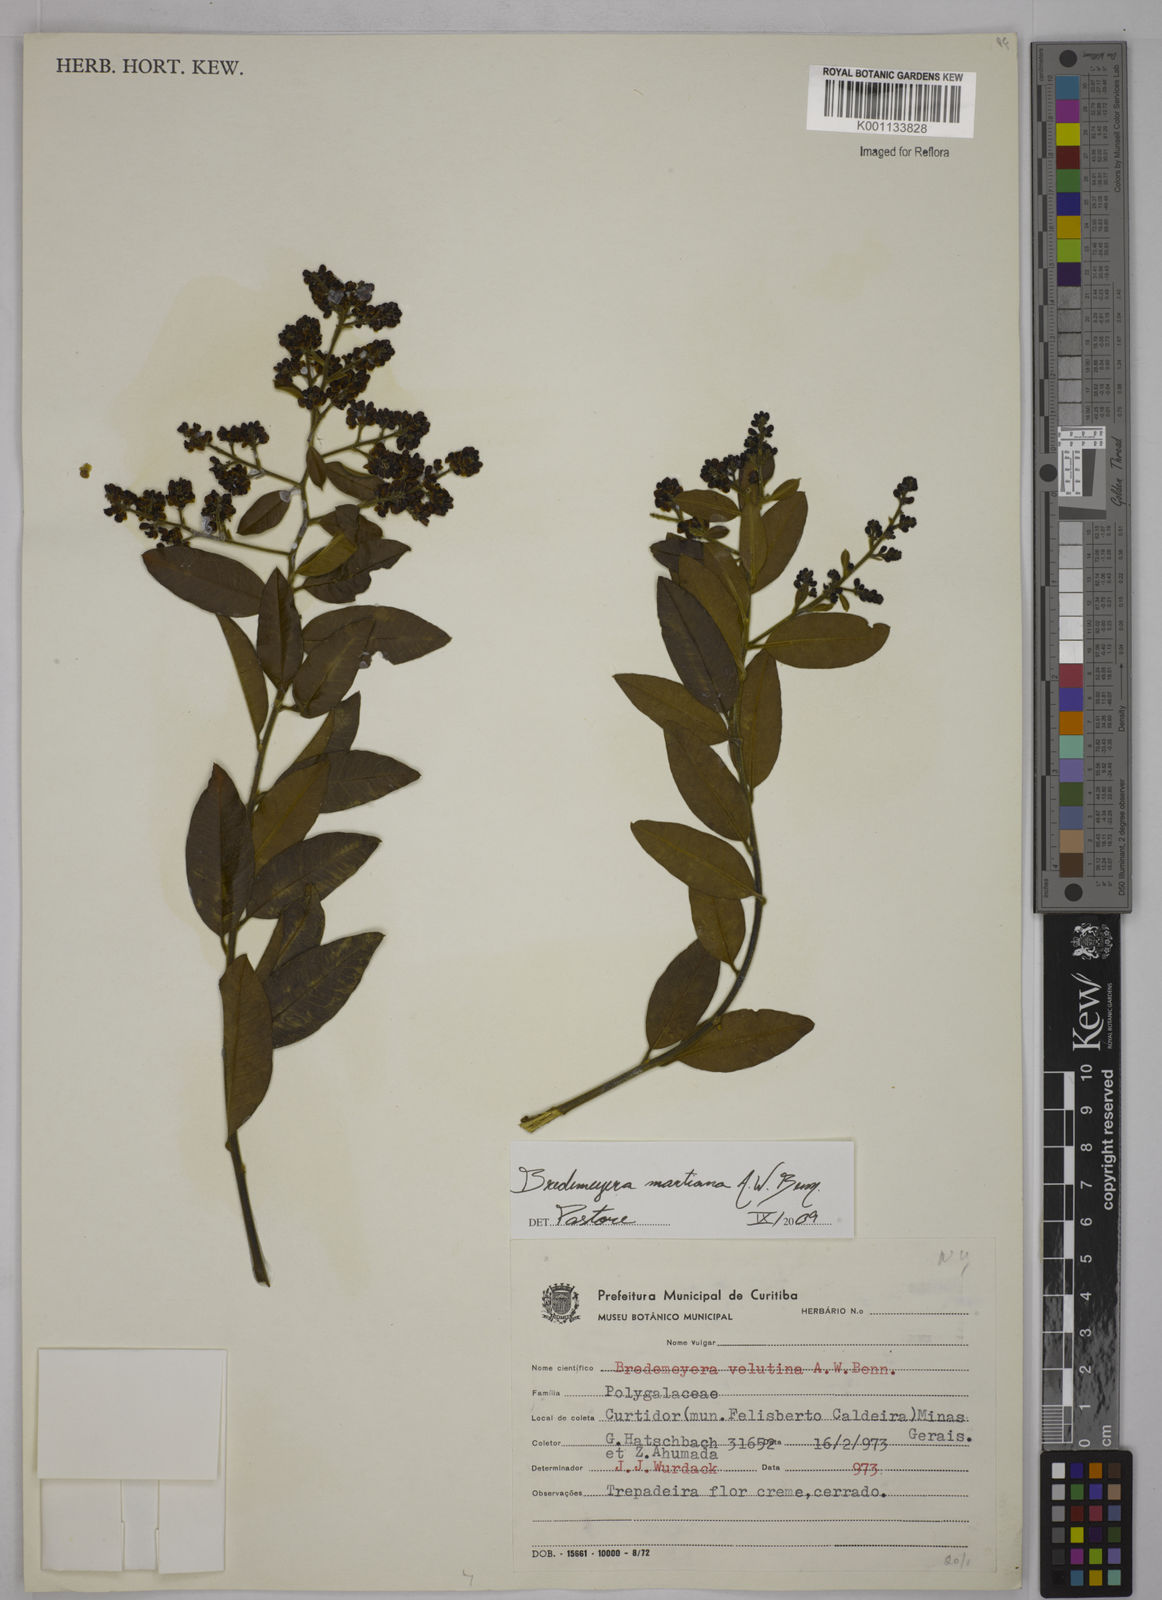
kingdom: Plantae
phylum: Tracheophyta
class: Magnoliopsida
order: Fabales
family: Polygalaceae
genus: Bredemeyera
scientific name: Bredemeyera martiana
